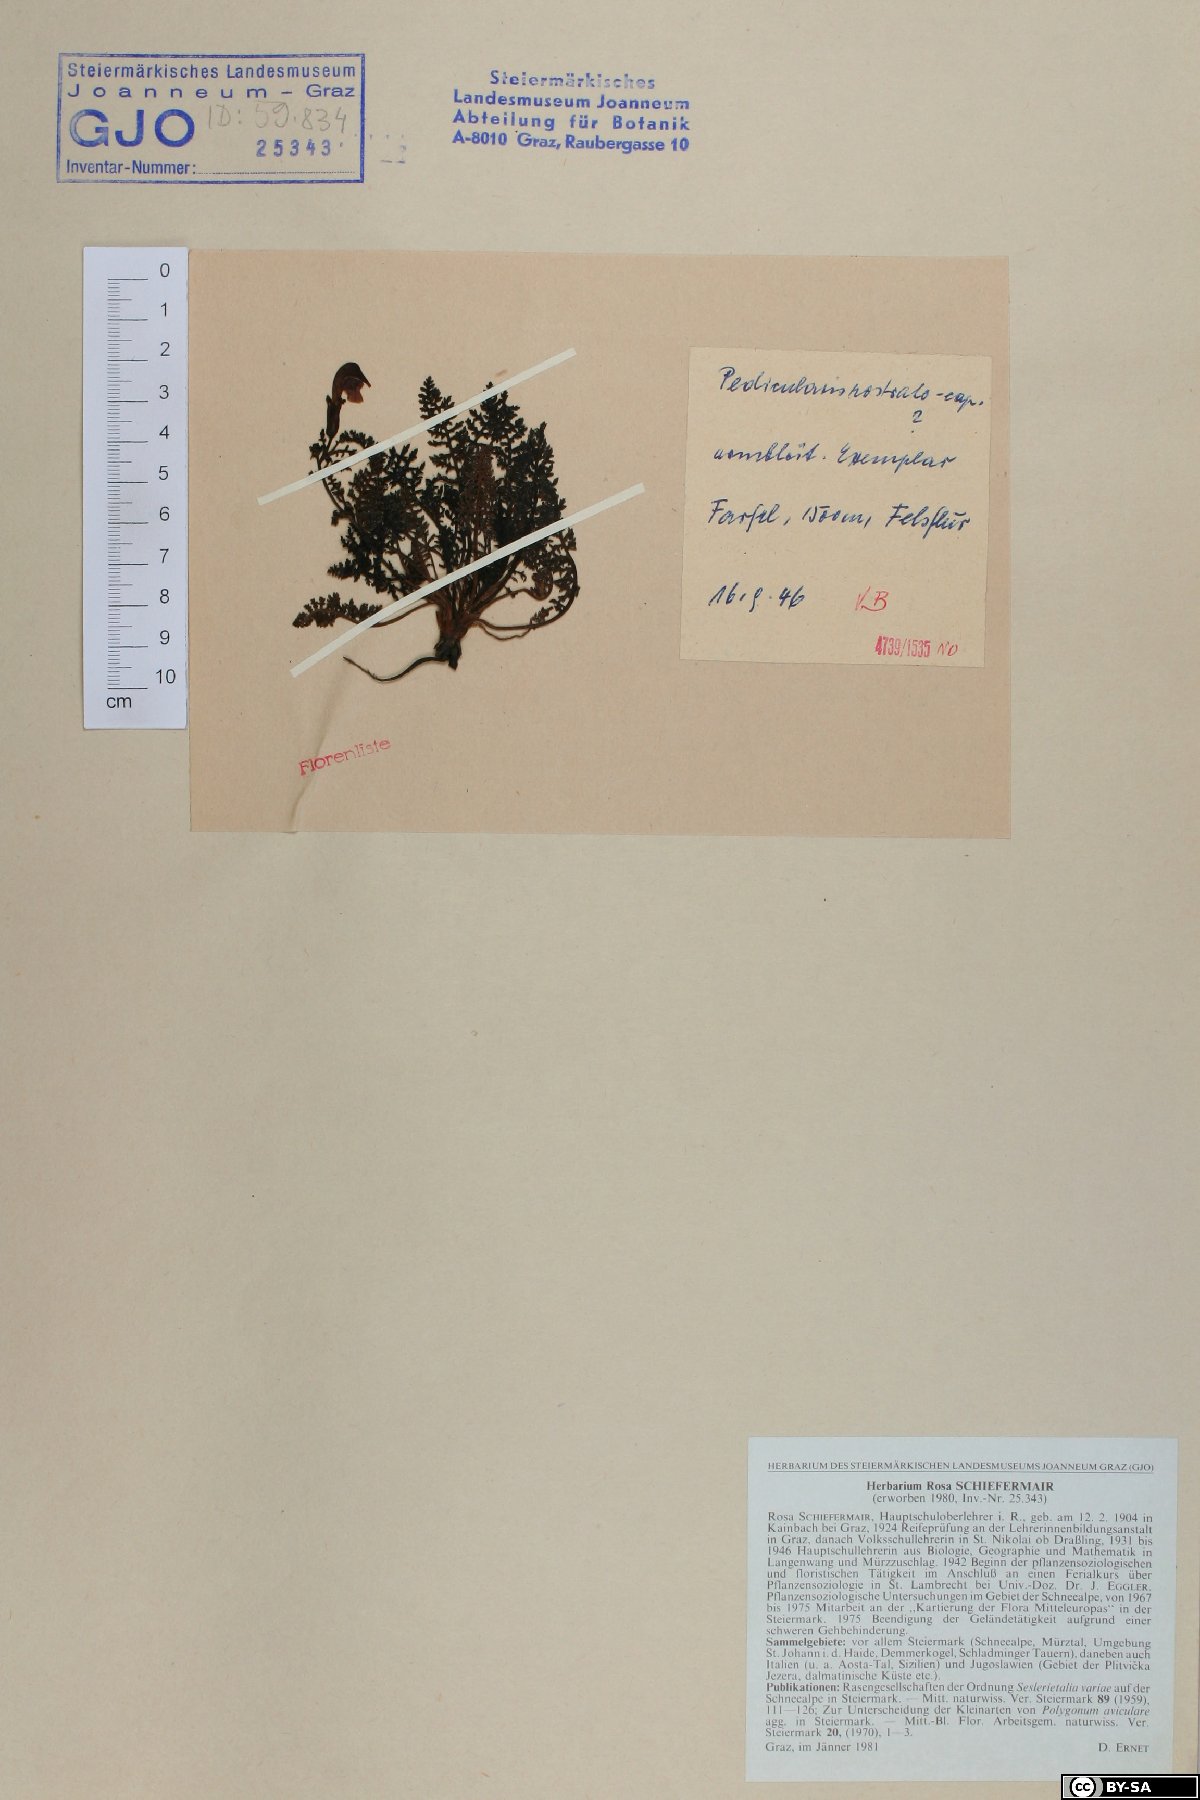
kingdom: Plantae
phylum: Tracheophyta
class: Magnoliopsida
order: Lamiales
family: Orobanchaceae
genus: Pedicularis
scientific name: Pedicularis rostratocapitata
